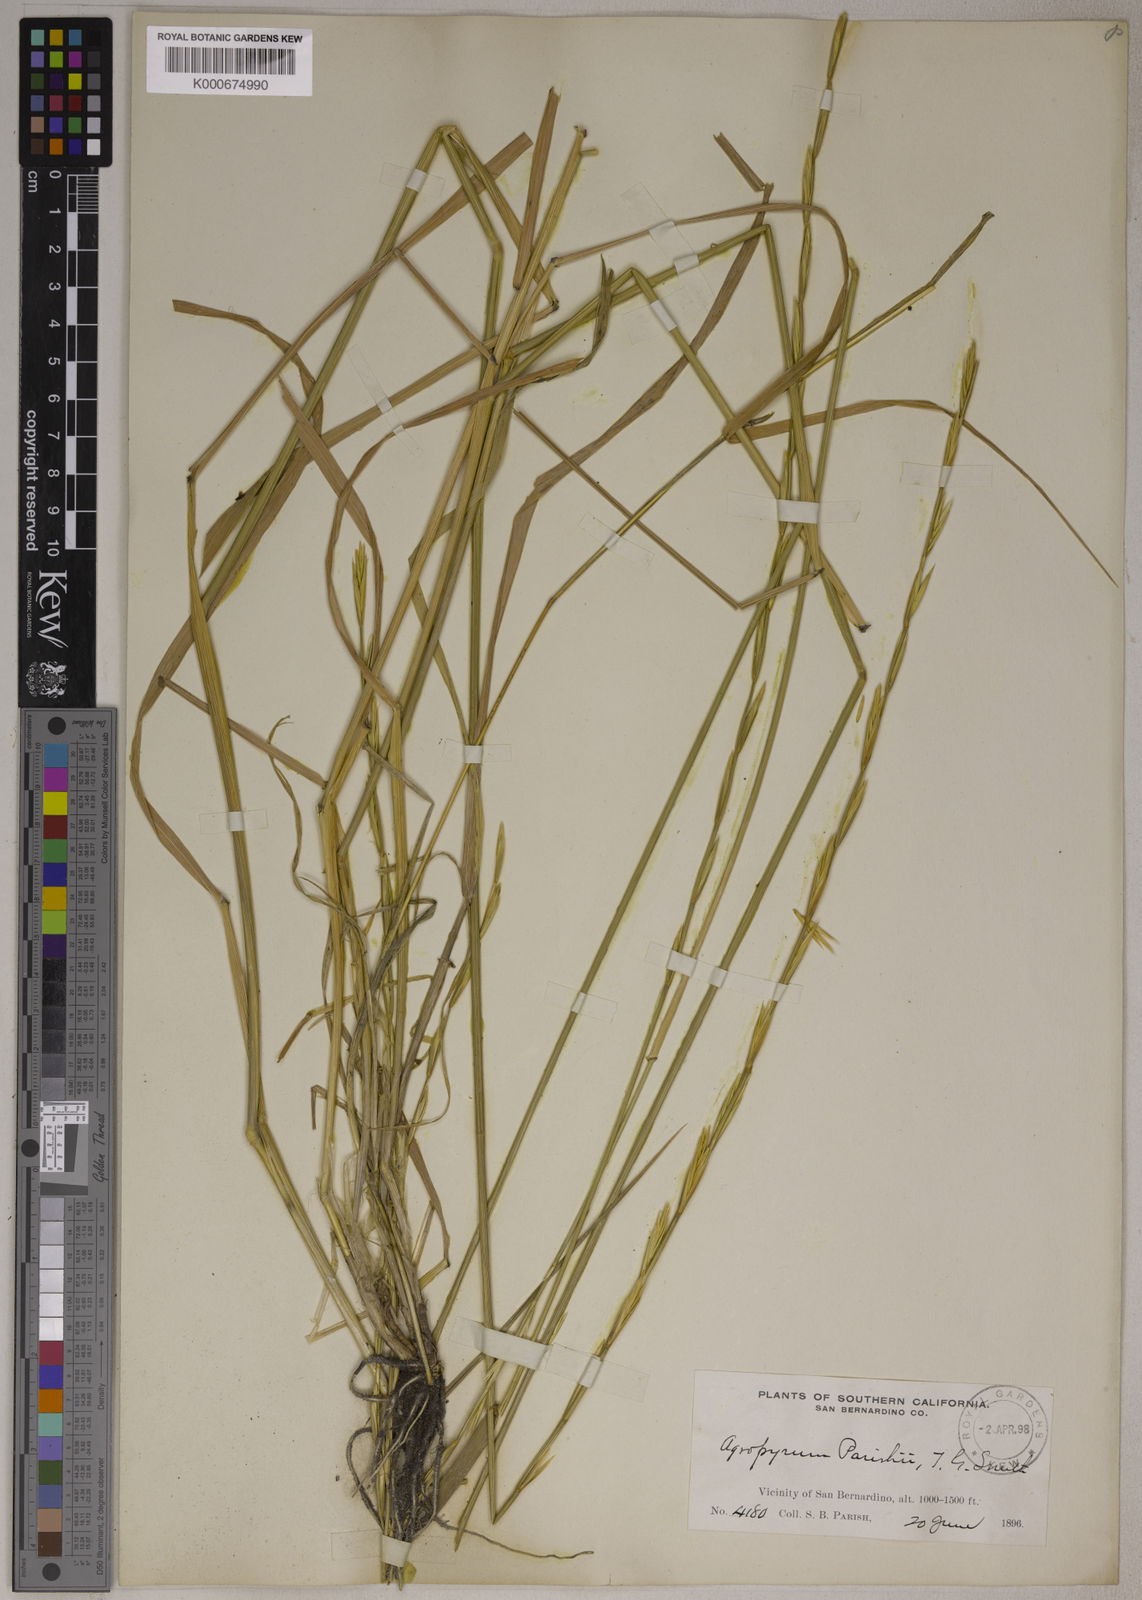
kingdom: Plantae
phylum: Tracheophyta
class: Liliopsida
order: Poales
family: Poaceae
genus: Elymus
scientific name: Elymus glaucus
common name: Blue wild rye
